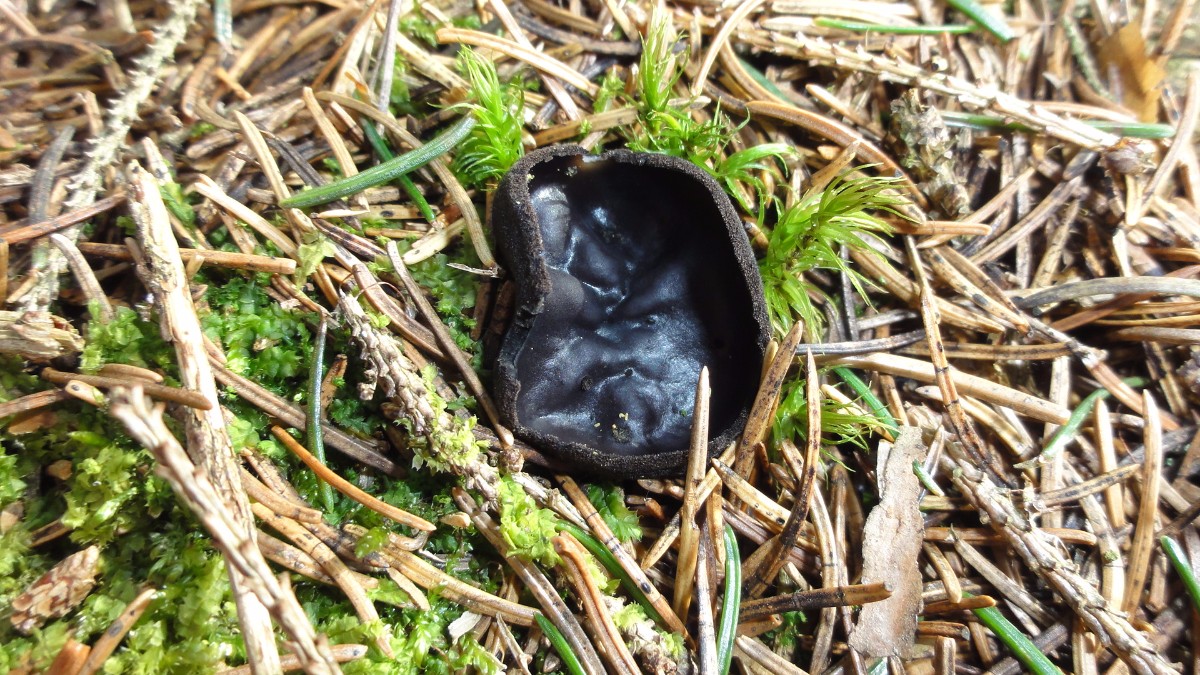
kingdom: Fungi
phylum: Ascomycota
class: Pezizomycetes
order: Pezizales
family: Sarcosomataceae
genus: Pseudoplectania
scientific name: Pseudoplectania nigrella
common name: almindelig sortbæger
